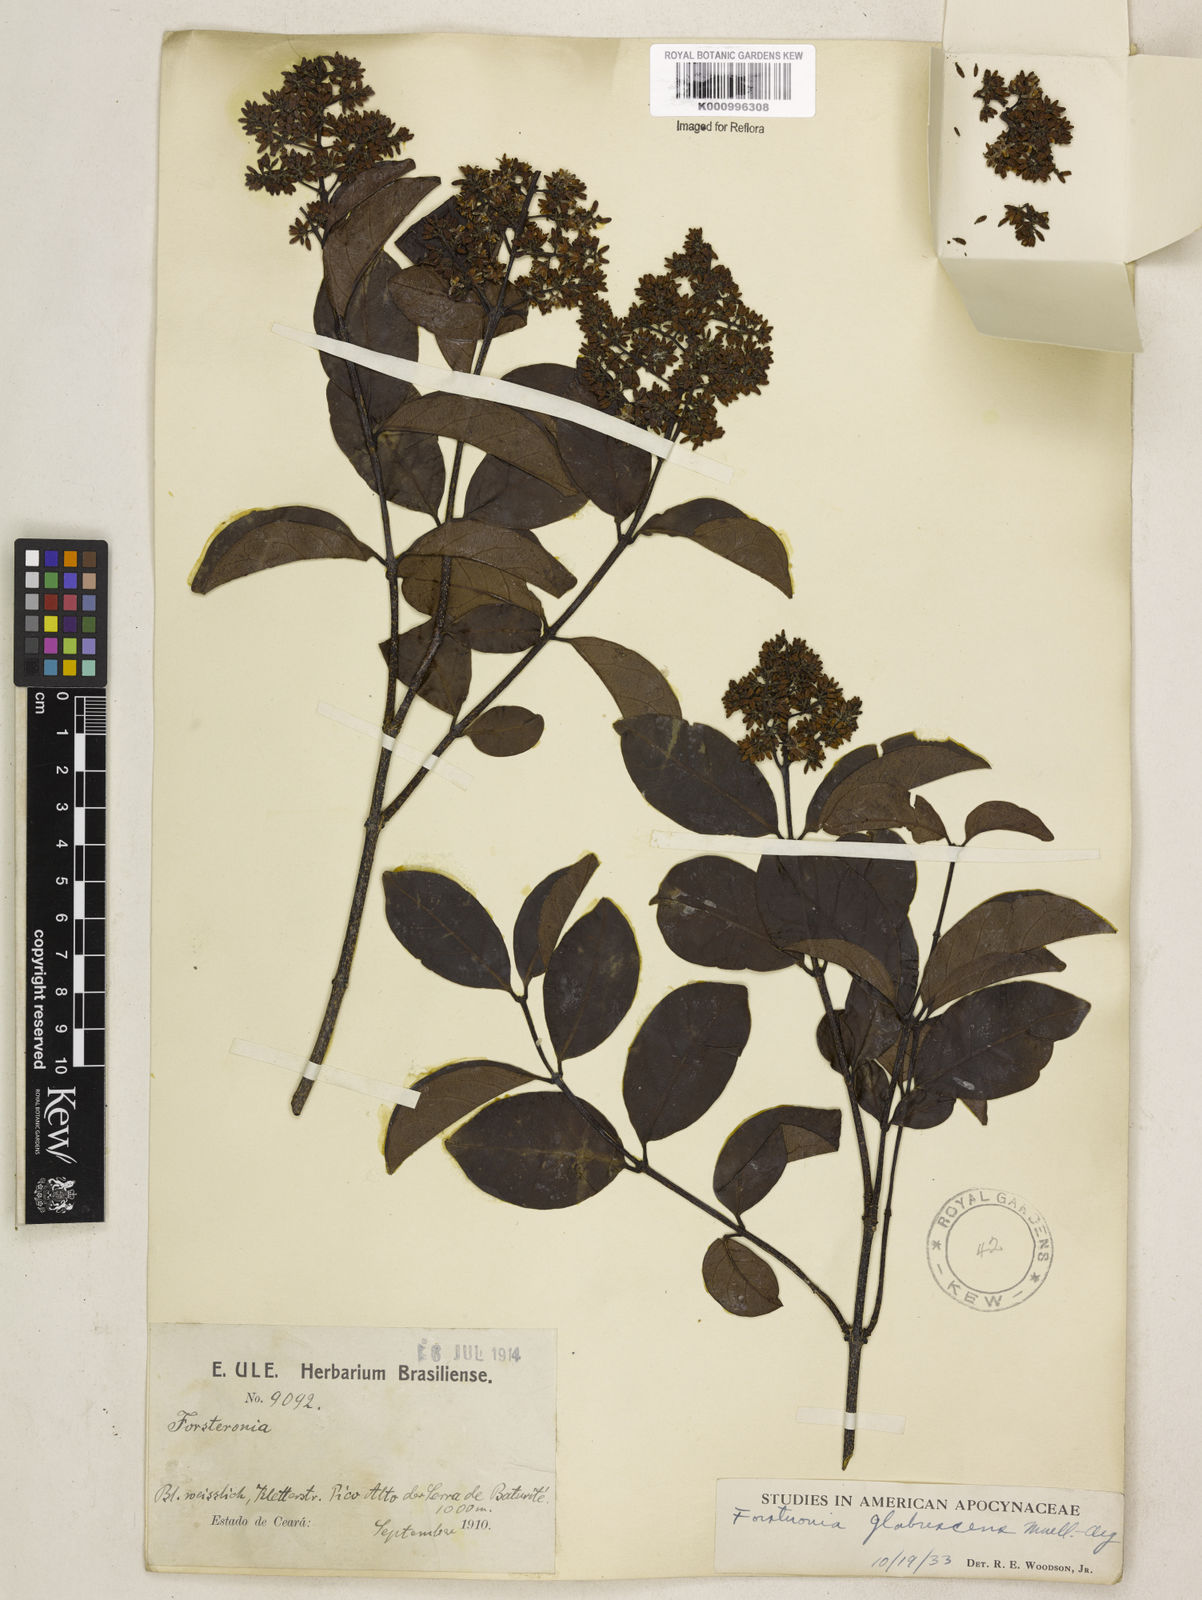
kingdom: Plantae
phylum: Tracheophyta
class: Magnoliopsida
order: Gentianales
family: Apocynaceae
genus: Forsteronia
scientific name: Forsteronia
